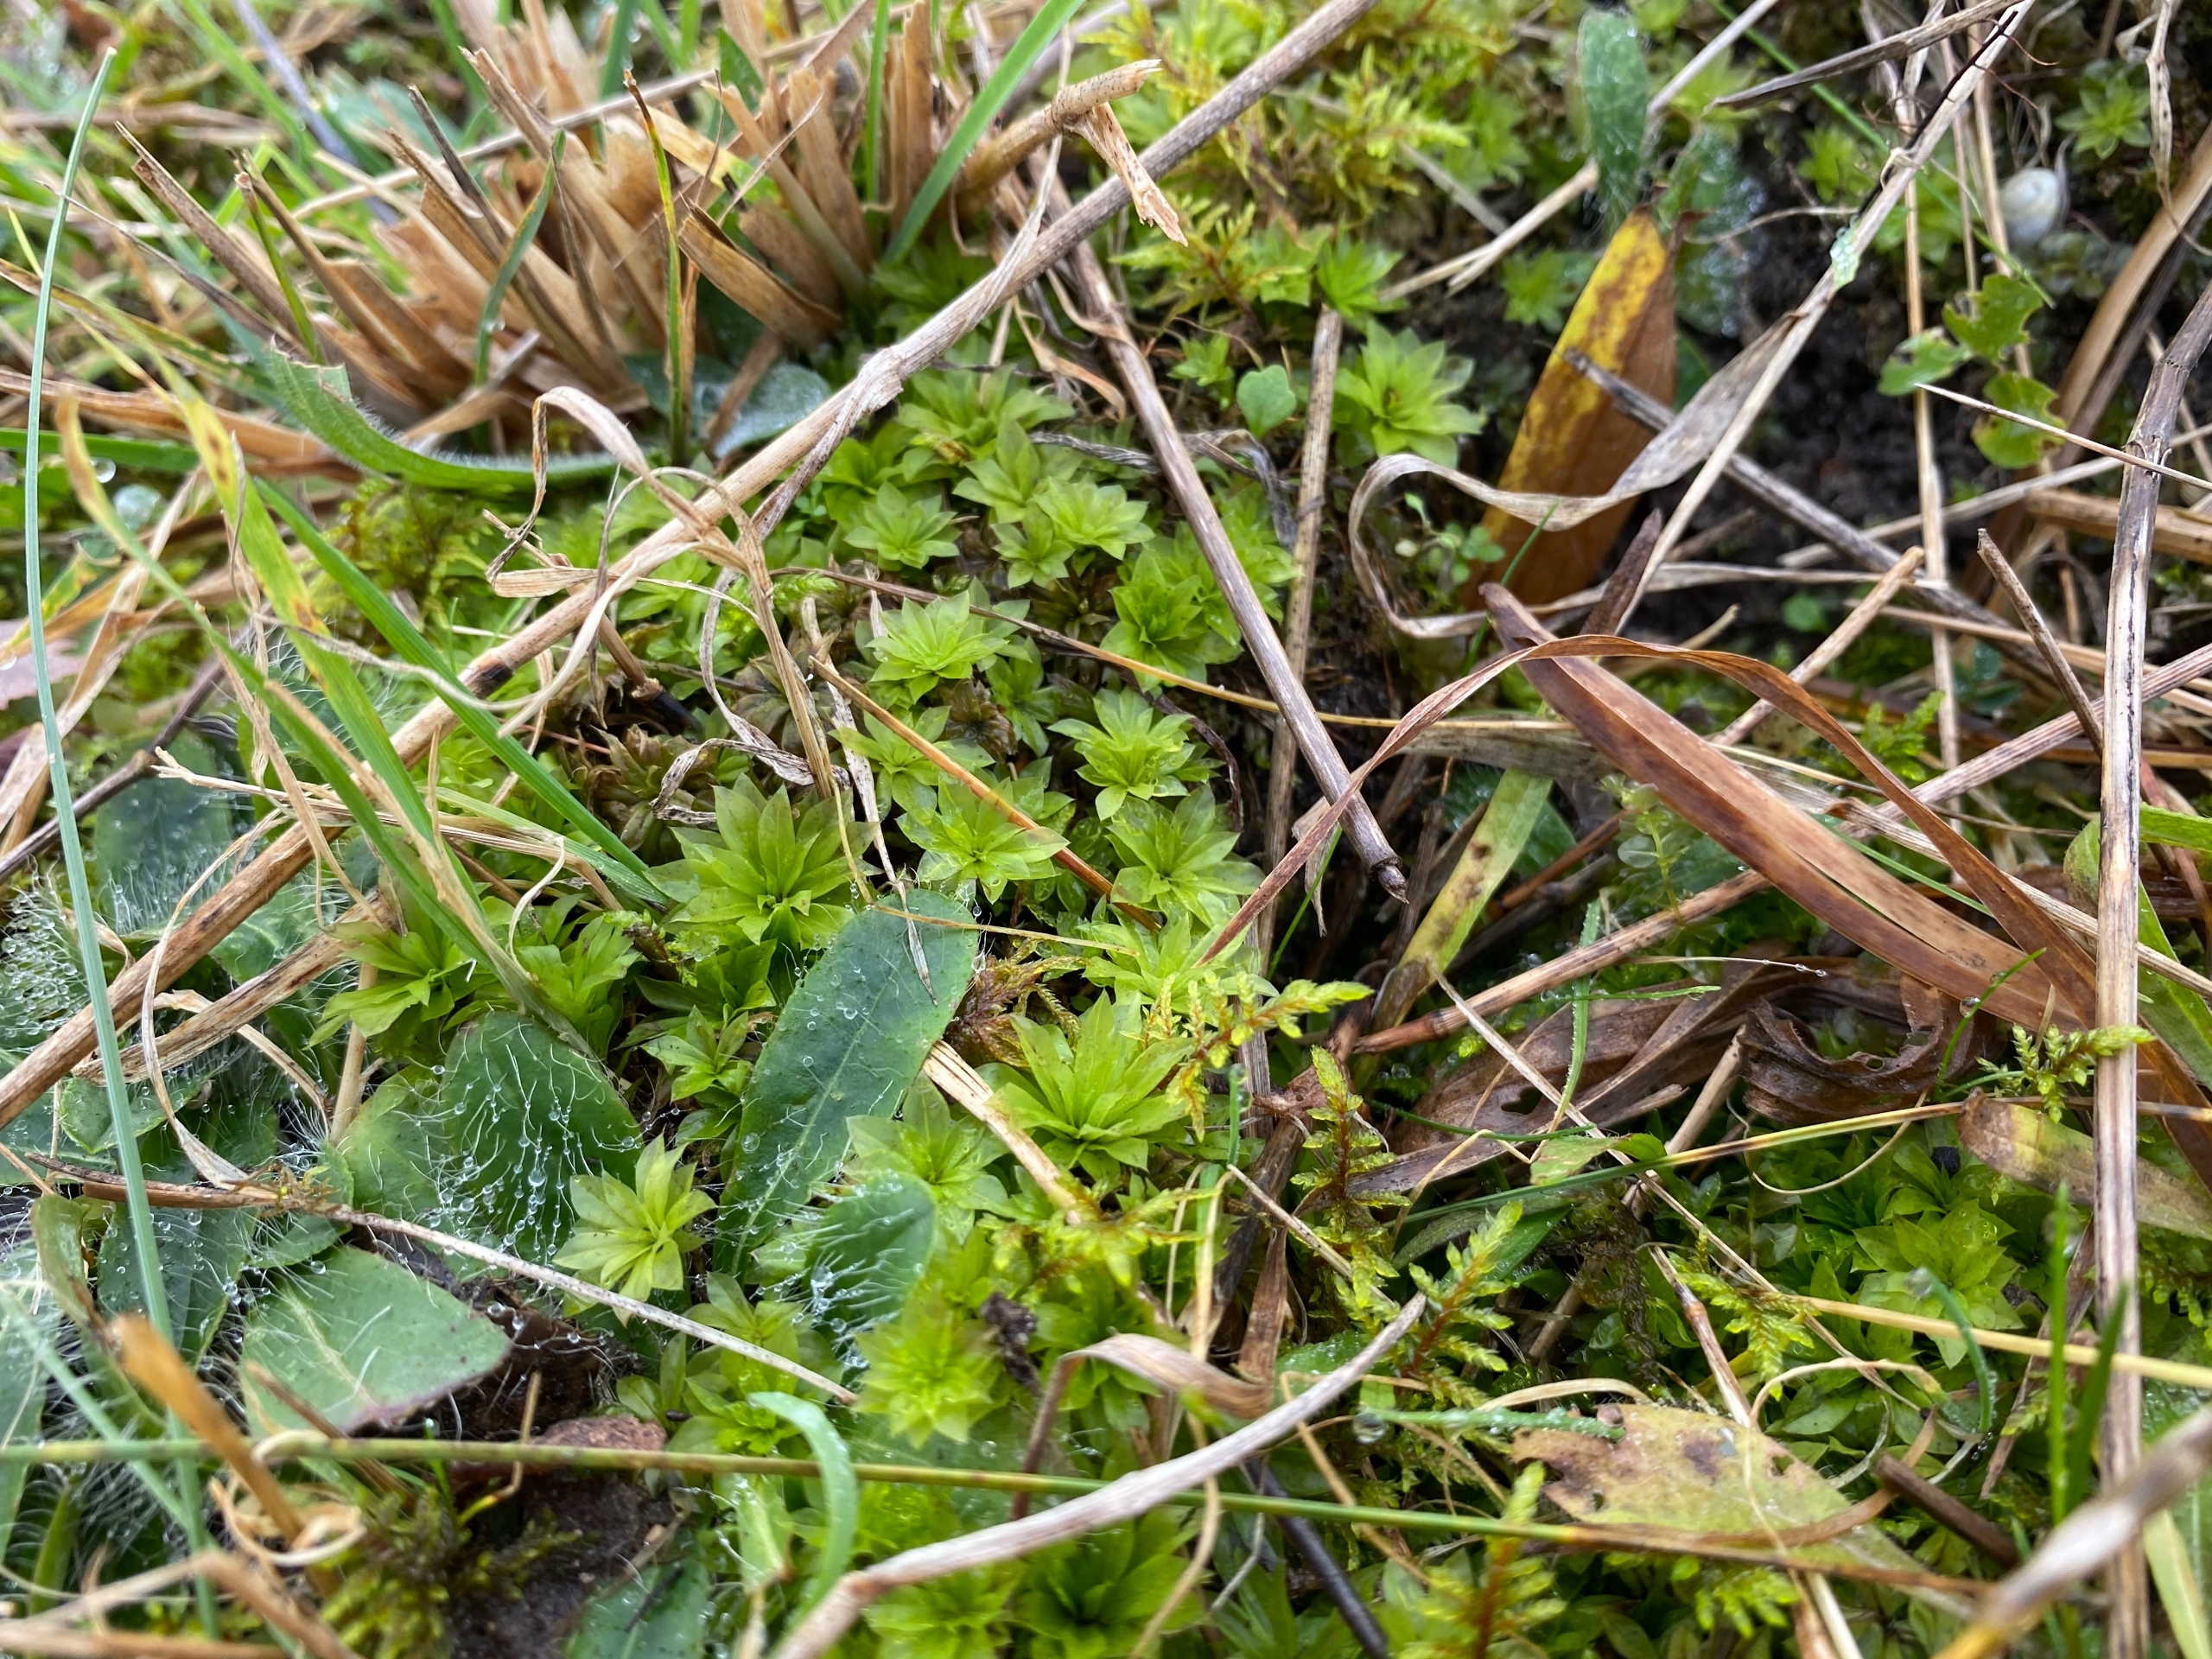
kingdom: Plantae
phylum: Bryophyta
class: Bryopsida
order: Bryales
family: Bryaceae
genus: Rhodobryum
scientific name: Rhodobryum roseum
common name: Stor rosetmos
